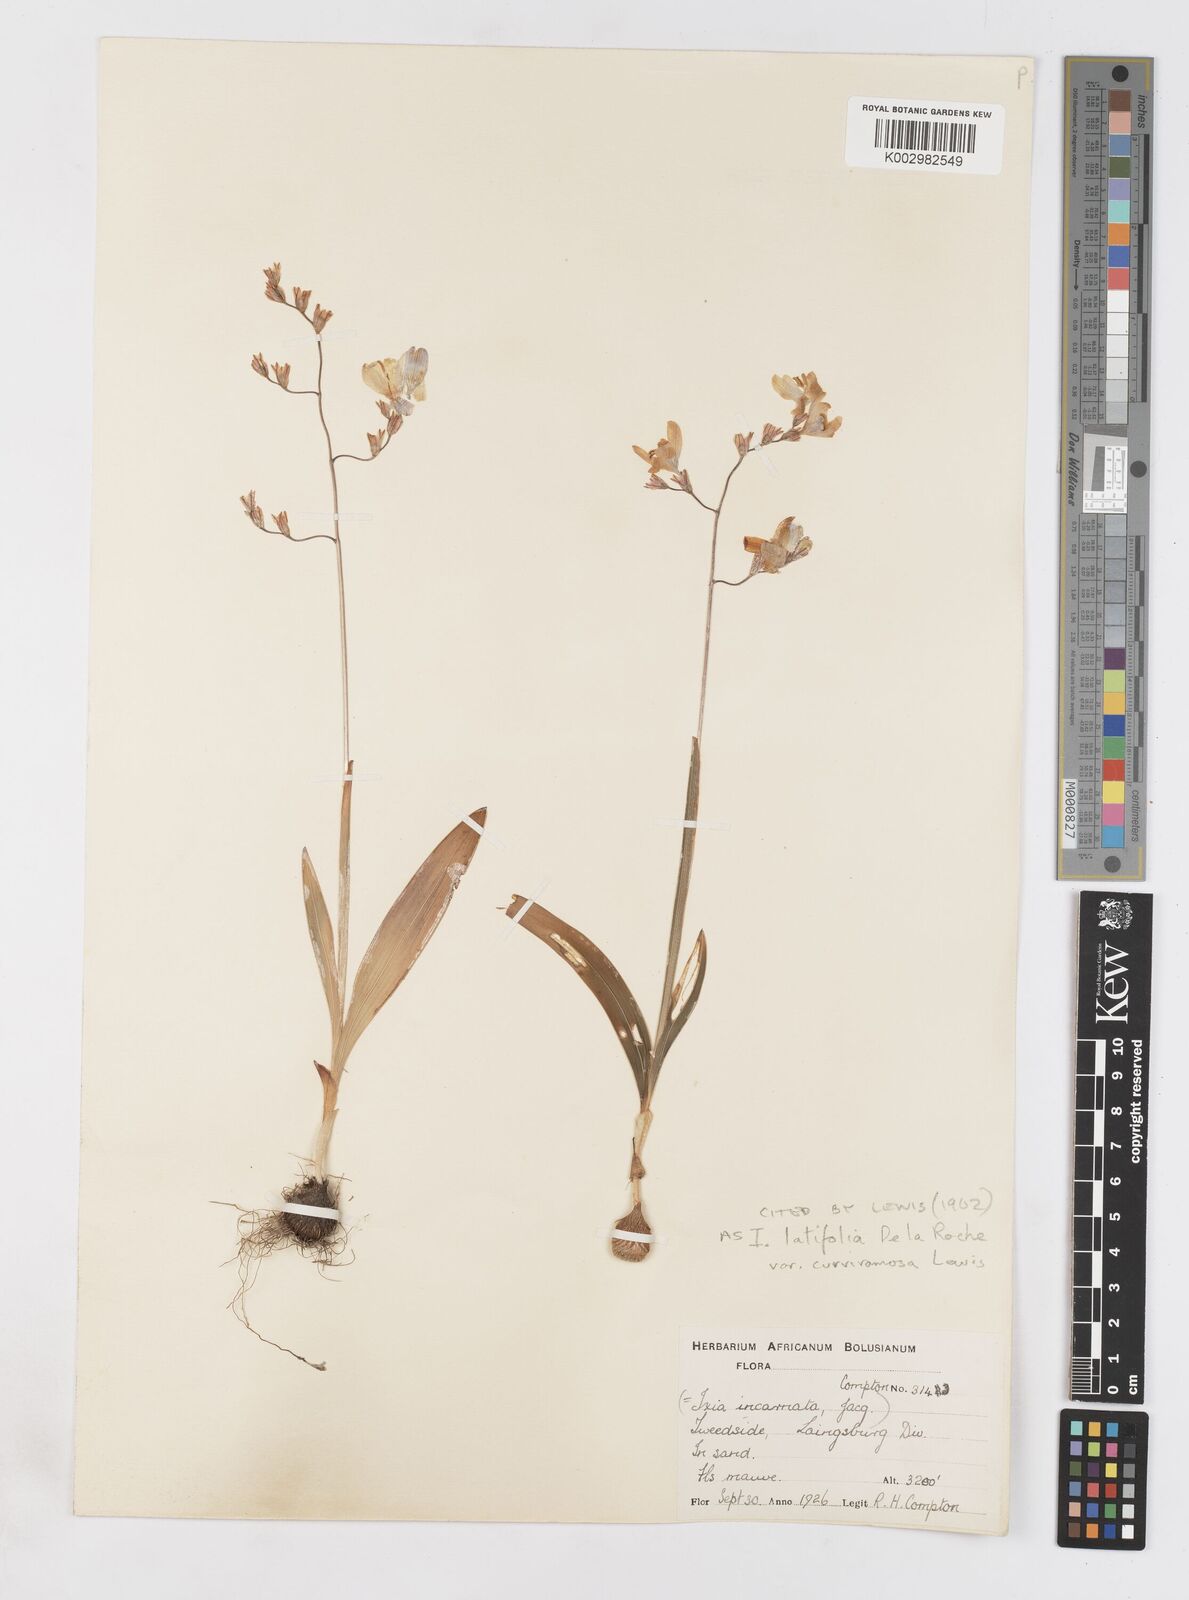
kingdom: Plantae
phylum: Tracheophyta
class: Liliopsida
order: Asparagales
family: Iridaceae
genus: Ixia
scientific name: Ixia latifolia
